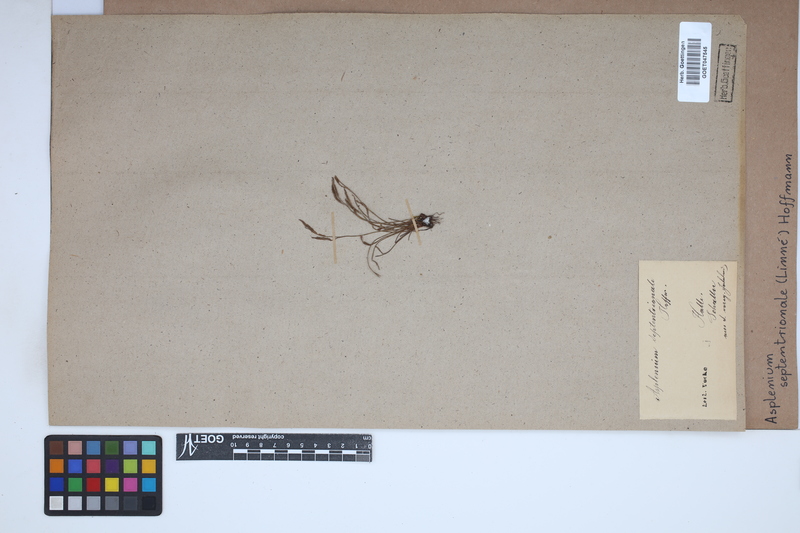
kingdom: Plantae
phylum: Tracheophyta
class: Polypodiopsida
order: Polypodiales
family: Aspleniaceae
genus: Asplenium
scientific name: Asplenium septentrionale
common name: Forked spleenwort
